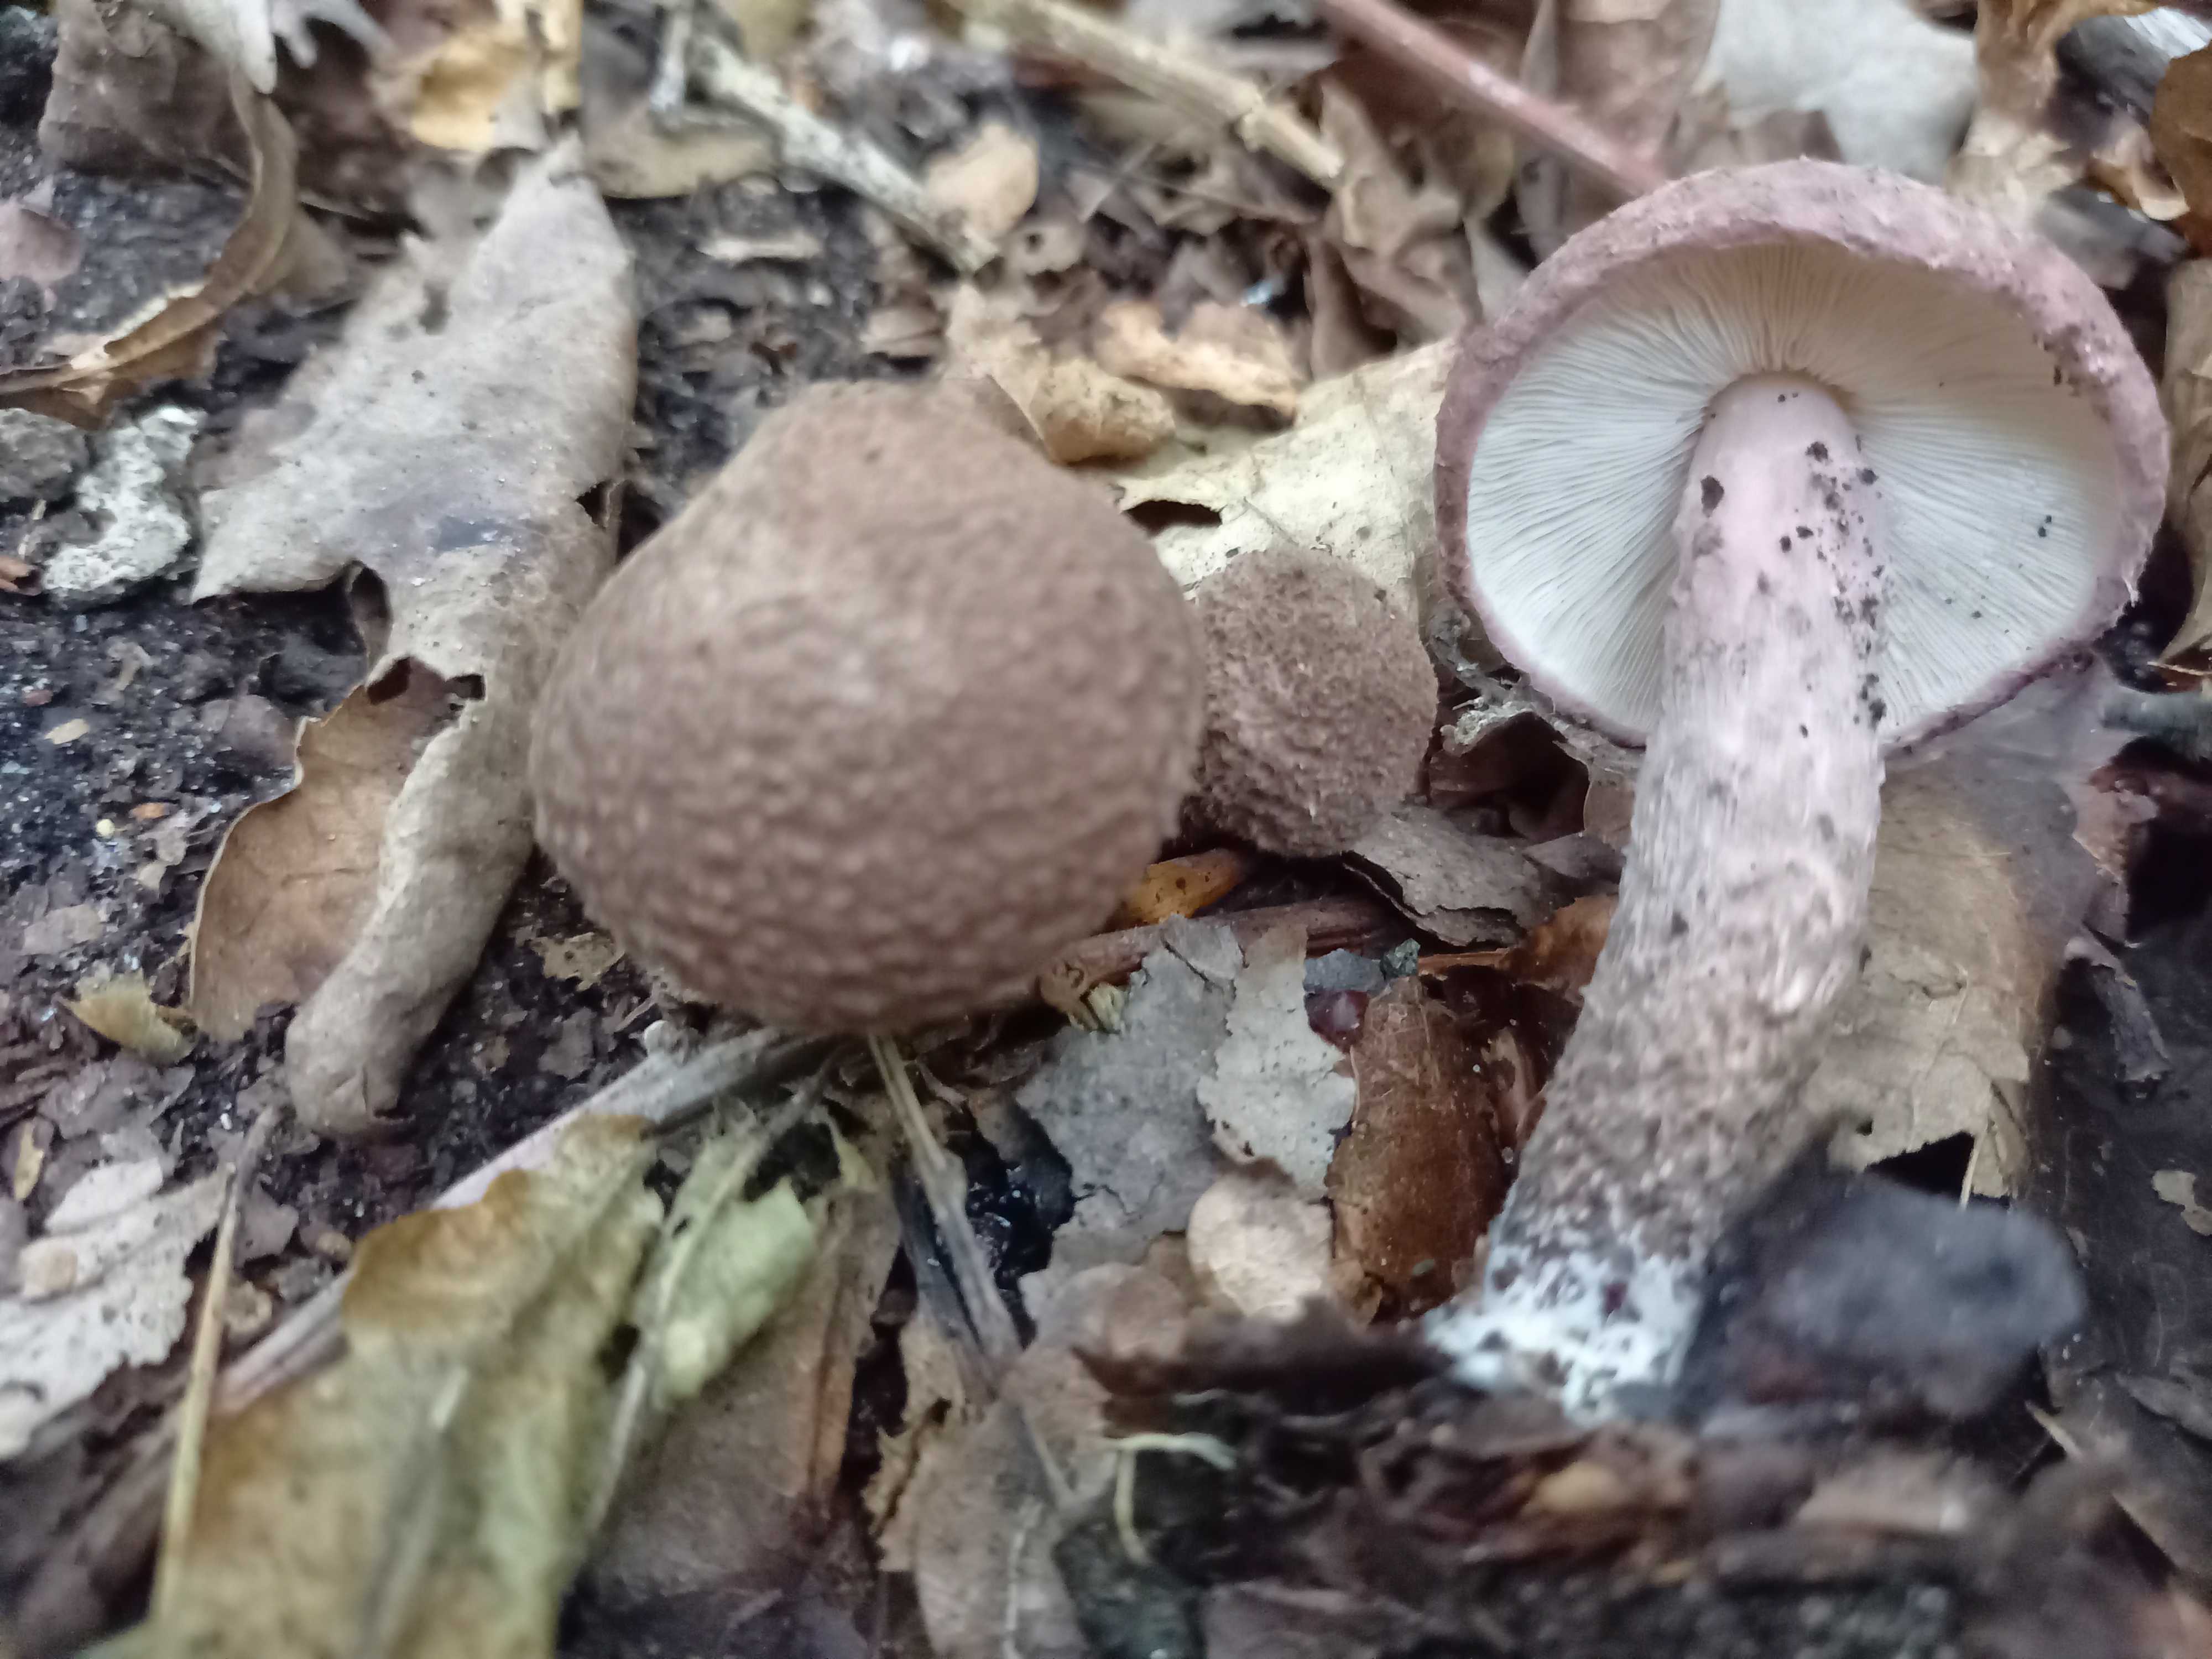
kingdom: Fungi
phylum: Basidiomycota
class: Agaricomycetes
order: Agaricales
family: Agaricaceae
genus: Lepiota
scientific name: Lepiota fuscovinacea
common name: vinrød parasolhat
